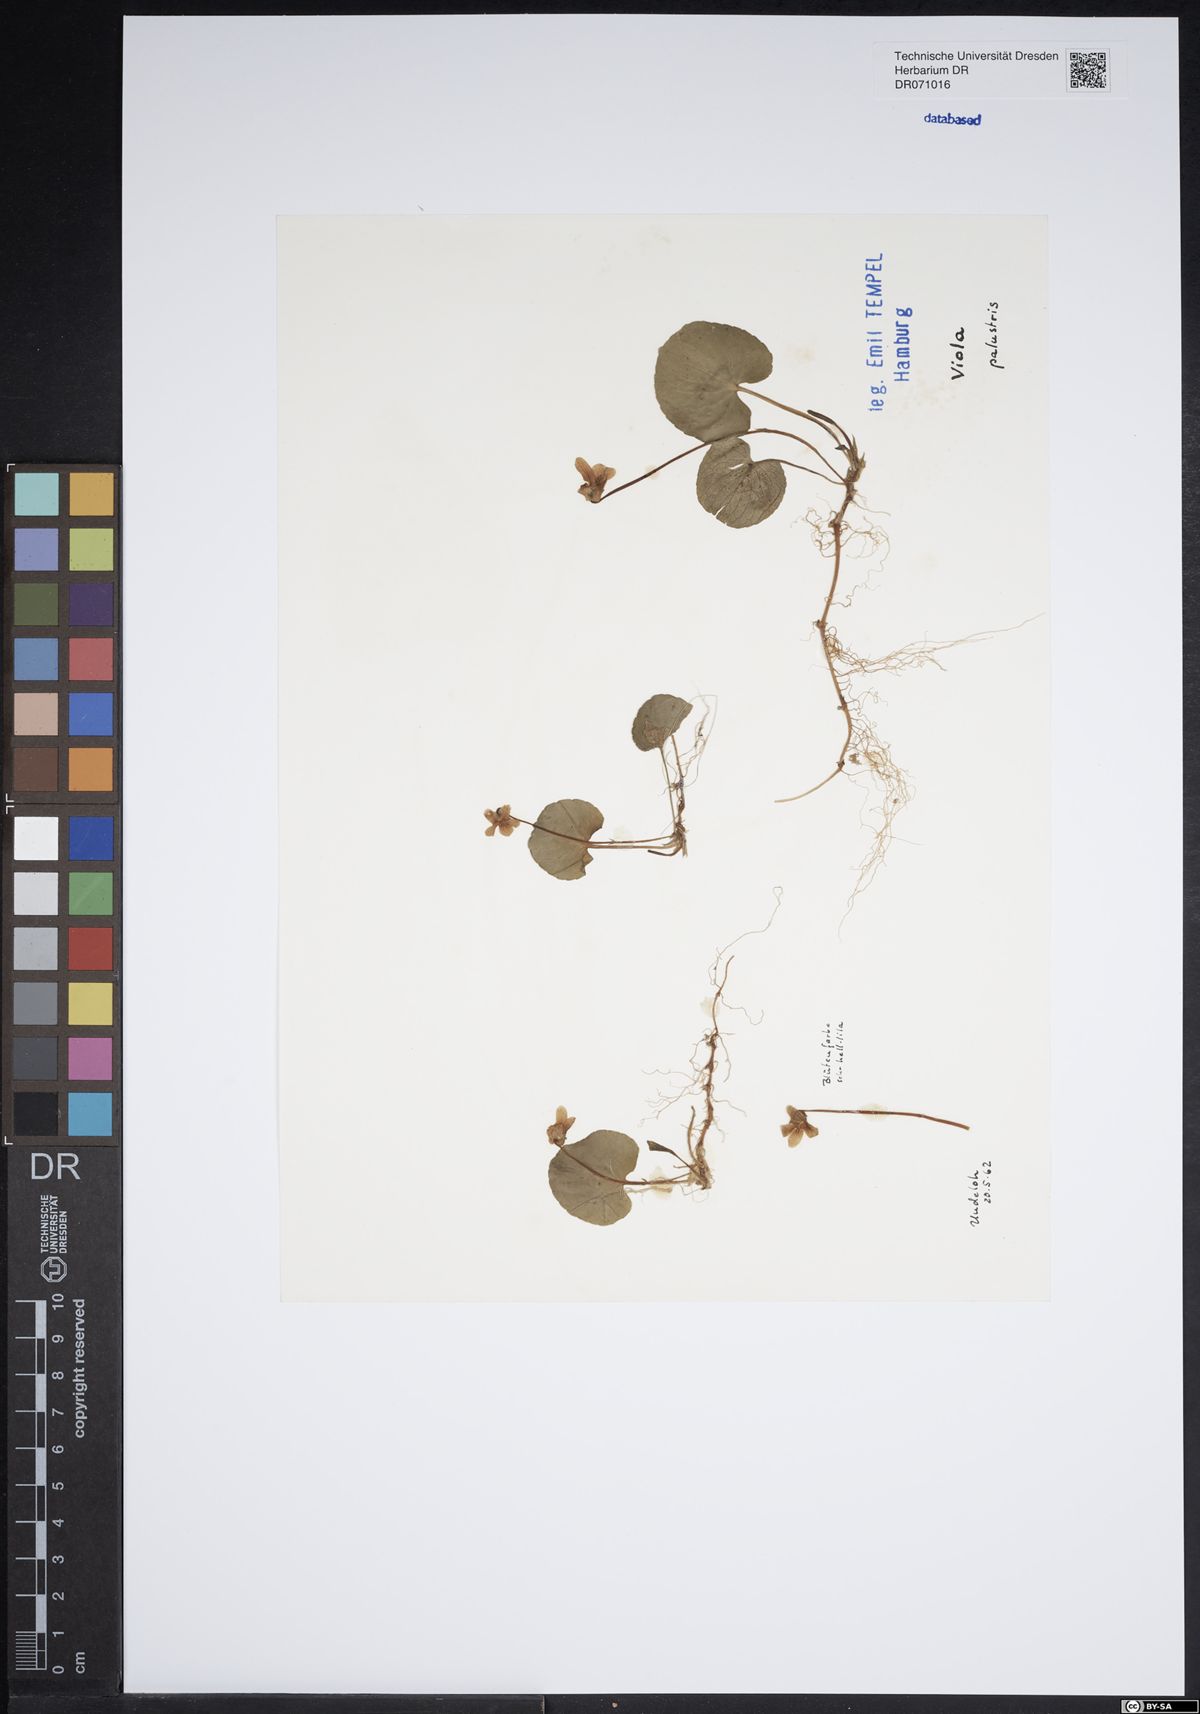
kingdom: Plantae
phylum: Tracheophyta
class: Magnoliopsida
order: Malpighiales
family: Violaceae
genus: Viola
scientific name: Viola palustris
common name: Marsh violet
